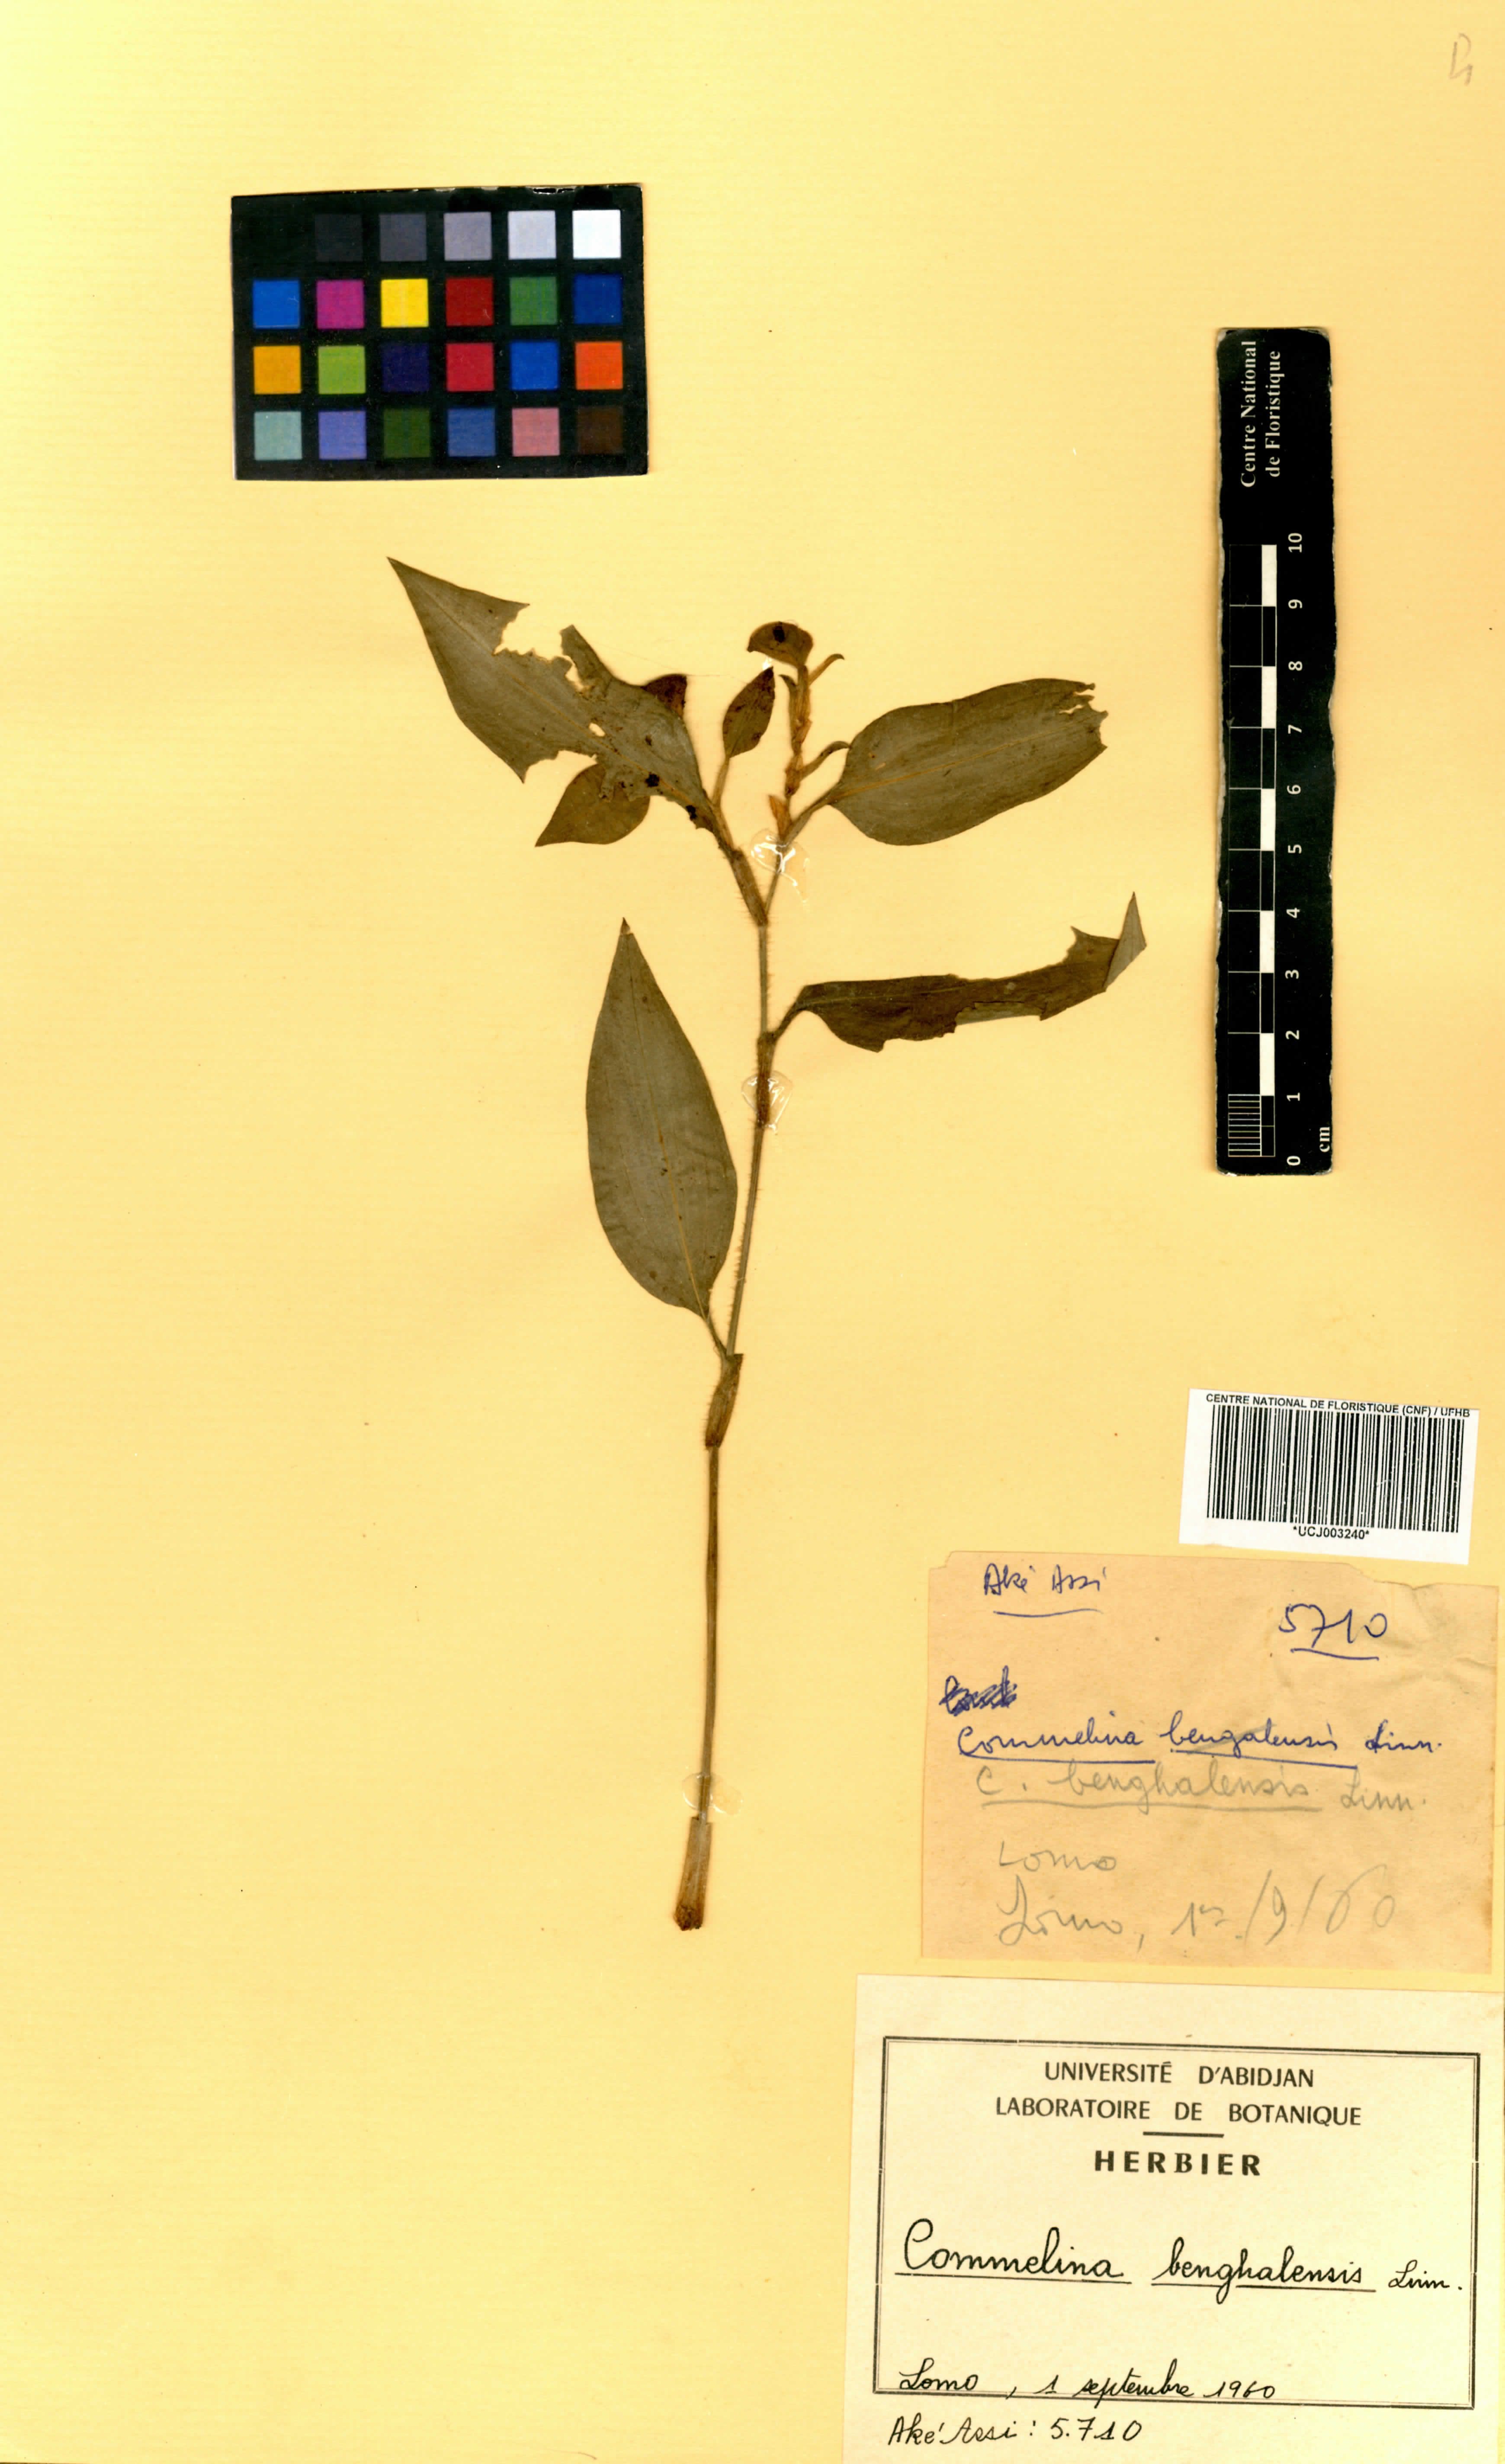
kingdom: Plantae
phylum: Tracheophyta
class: Liliopsida
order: Commelinales
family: Commelinaceae
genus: Commelina
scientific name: Commelina benghalensis
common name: Jio
